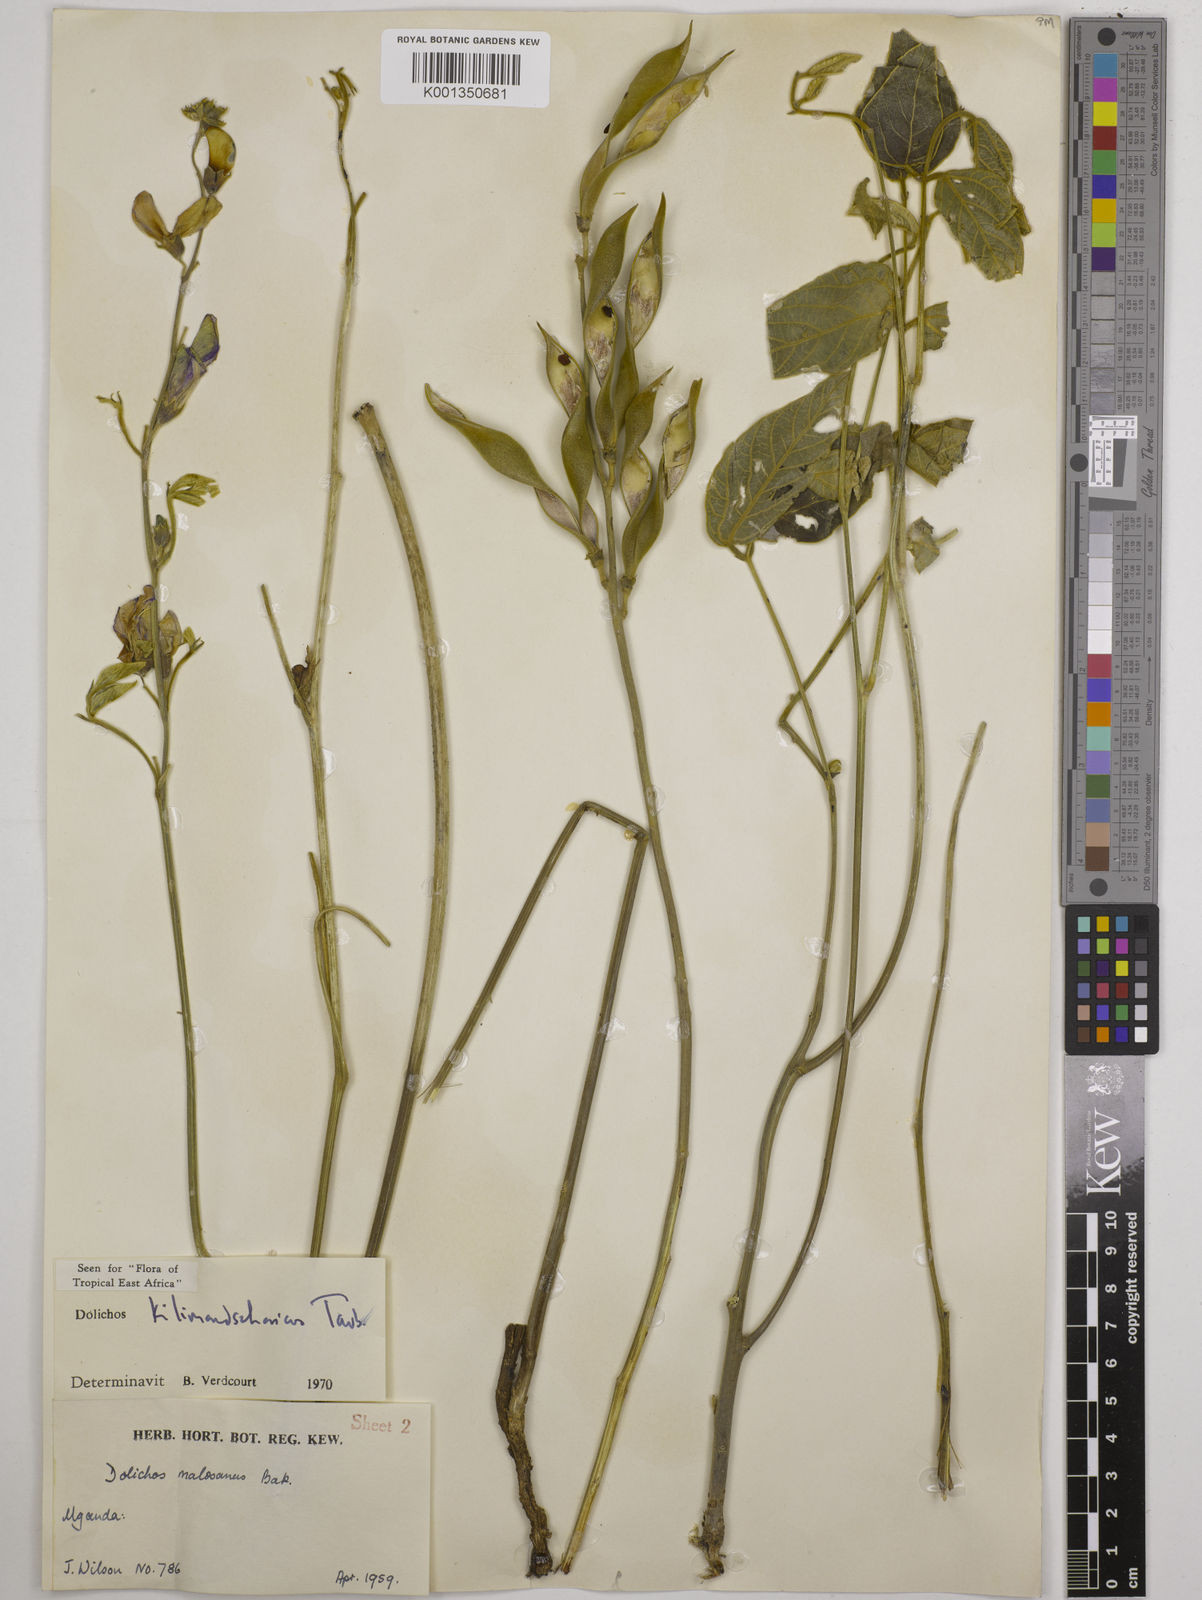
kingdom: Plantae
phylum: Tracheophyta
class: Magnoliopsida
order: Fabales
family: Fabaceae
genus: Dolichos
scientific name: Dolichos kilimandscharicus
